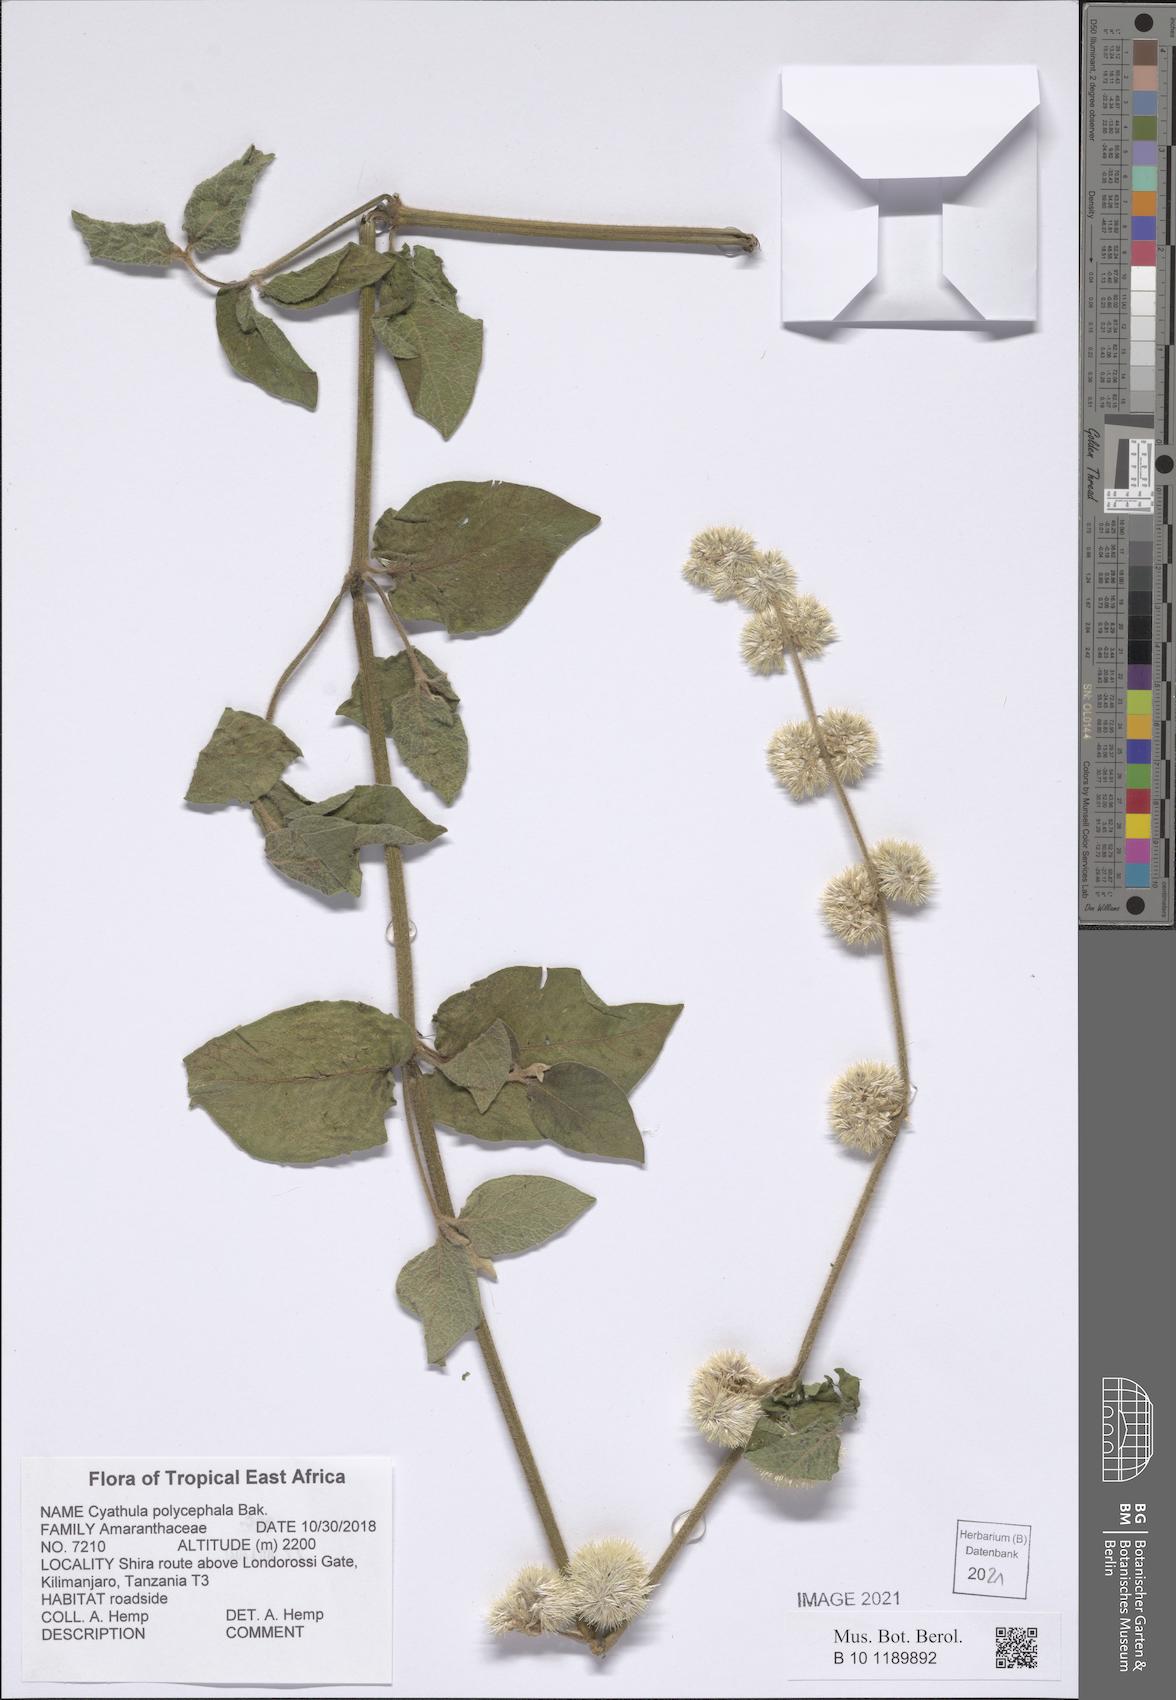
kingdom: Plantae
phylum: Tracheophyta
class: Magnoliopsida
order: Caryophyllales
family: Amaranthaceae
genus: Cyathula
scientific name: Cyathula polycephala
